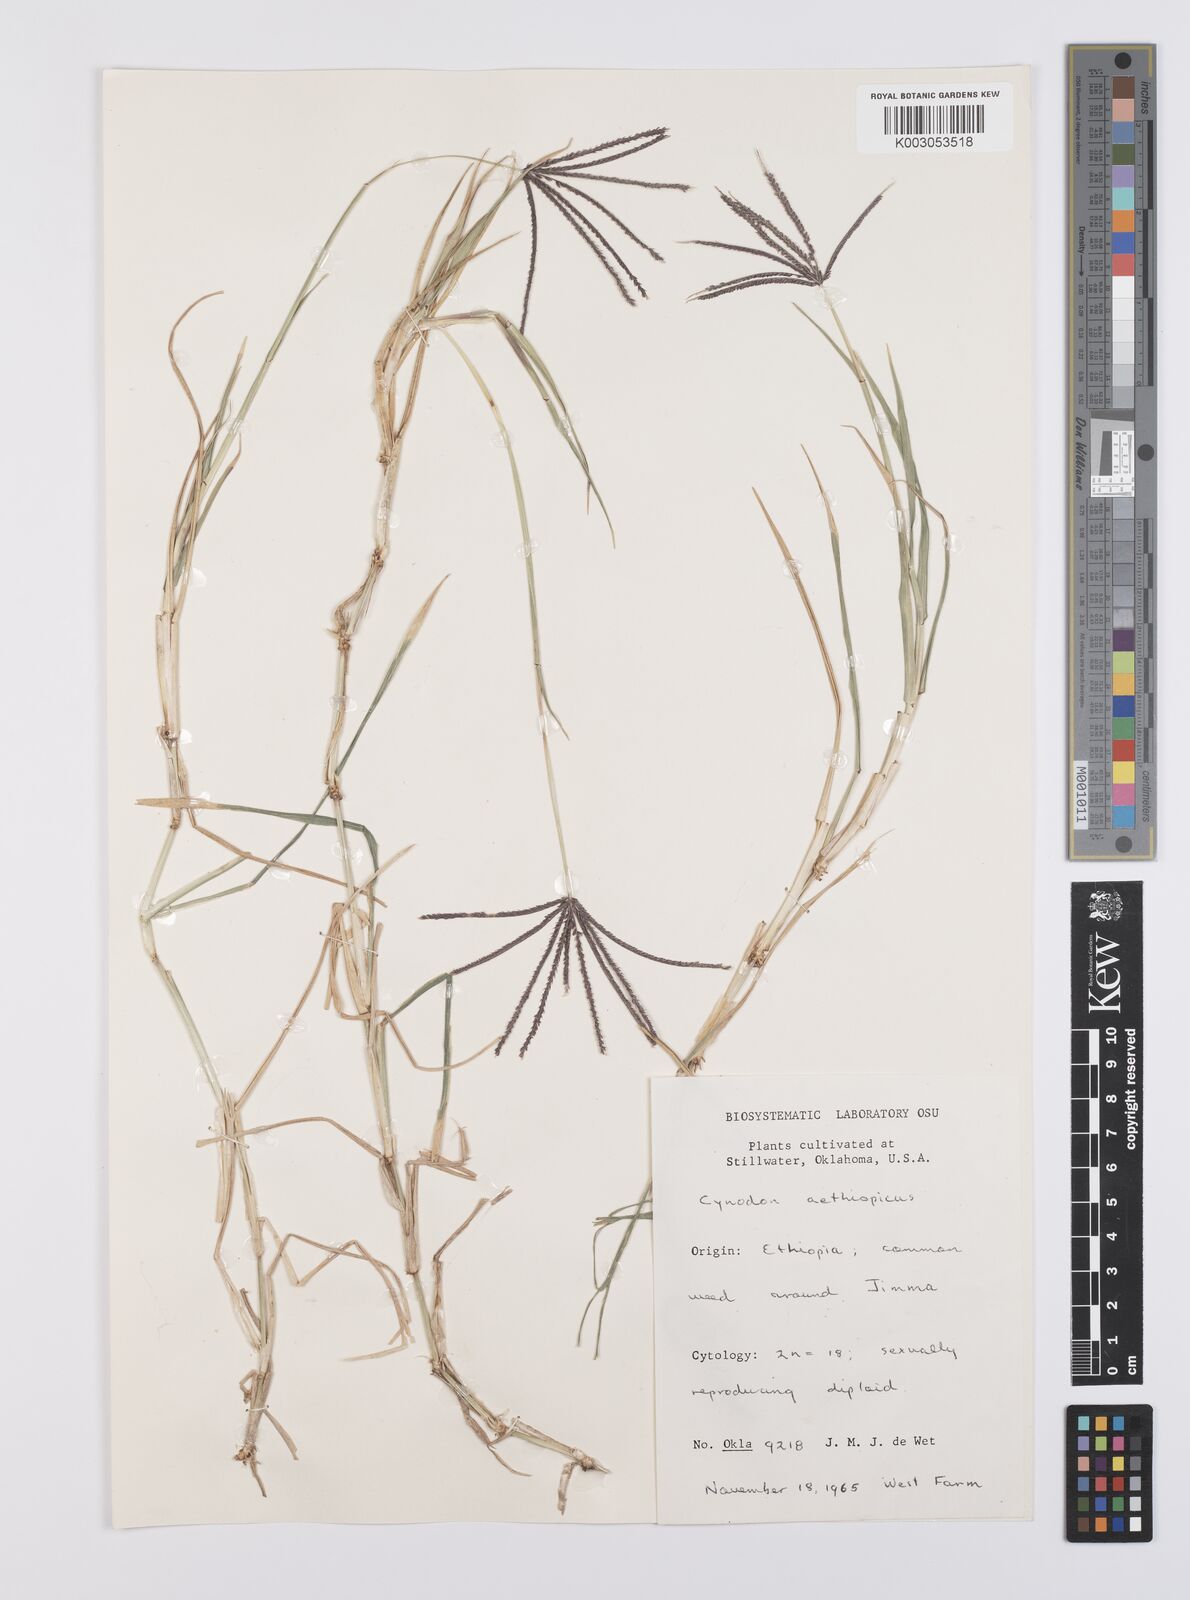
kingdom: Plantae
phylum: Tracheophyta
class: Liliopsida
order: Poales
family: Poaceae
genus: Cynodon
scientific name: Cynodon aethiopicus
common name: Ethiopian dogstooth grass
